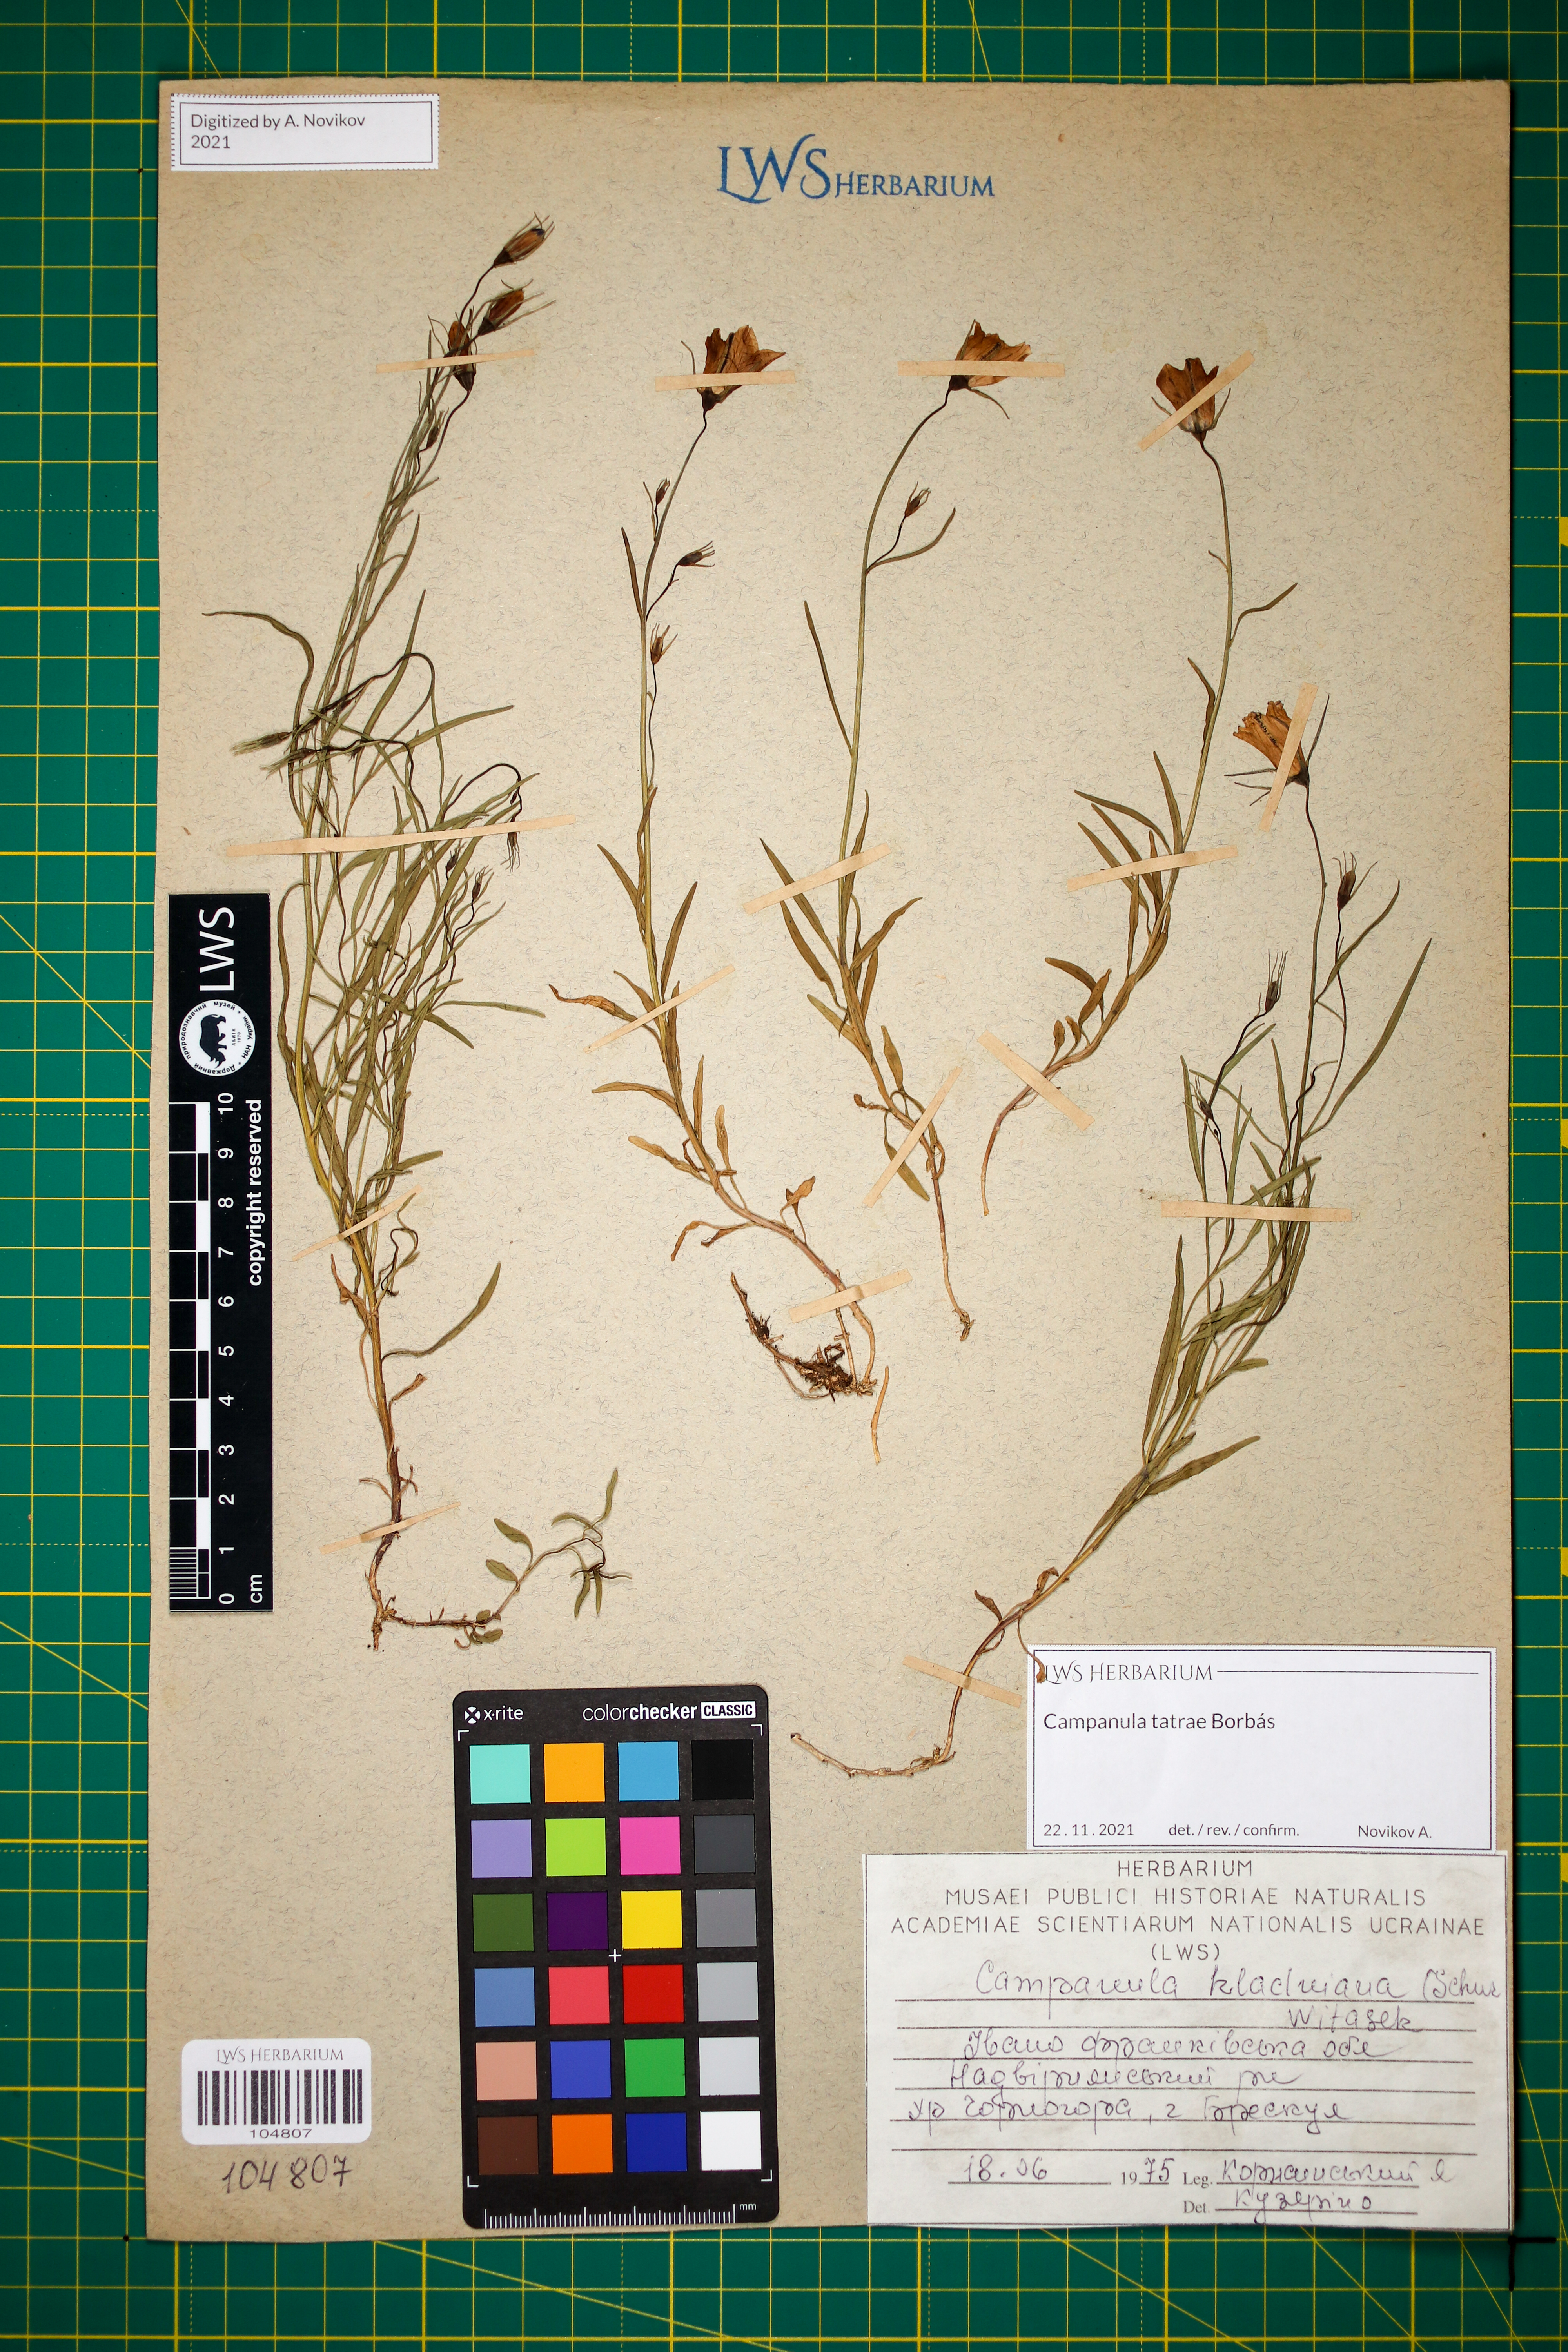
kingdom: Plantae
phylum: Tracheophyta
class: Magnoliopsida
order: Asterales
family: Campanulaceae
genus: Campanula
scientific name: Campanula kladniana
